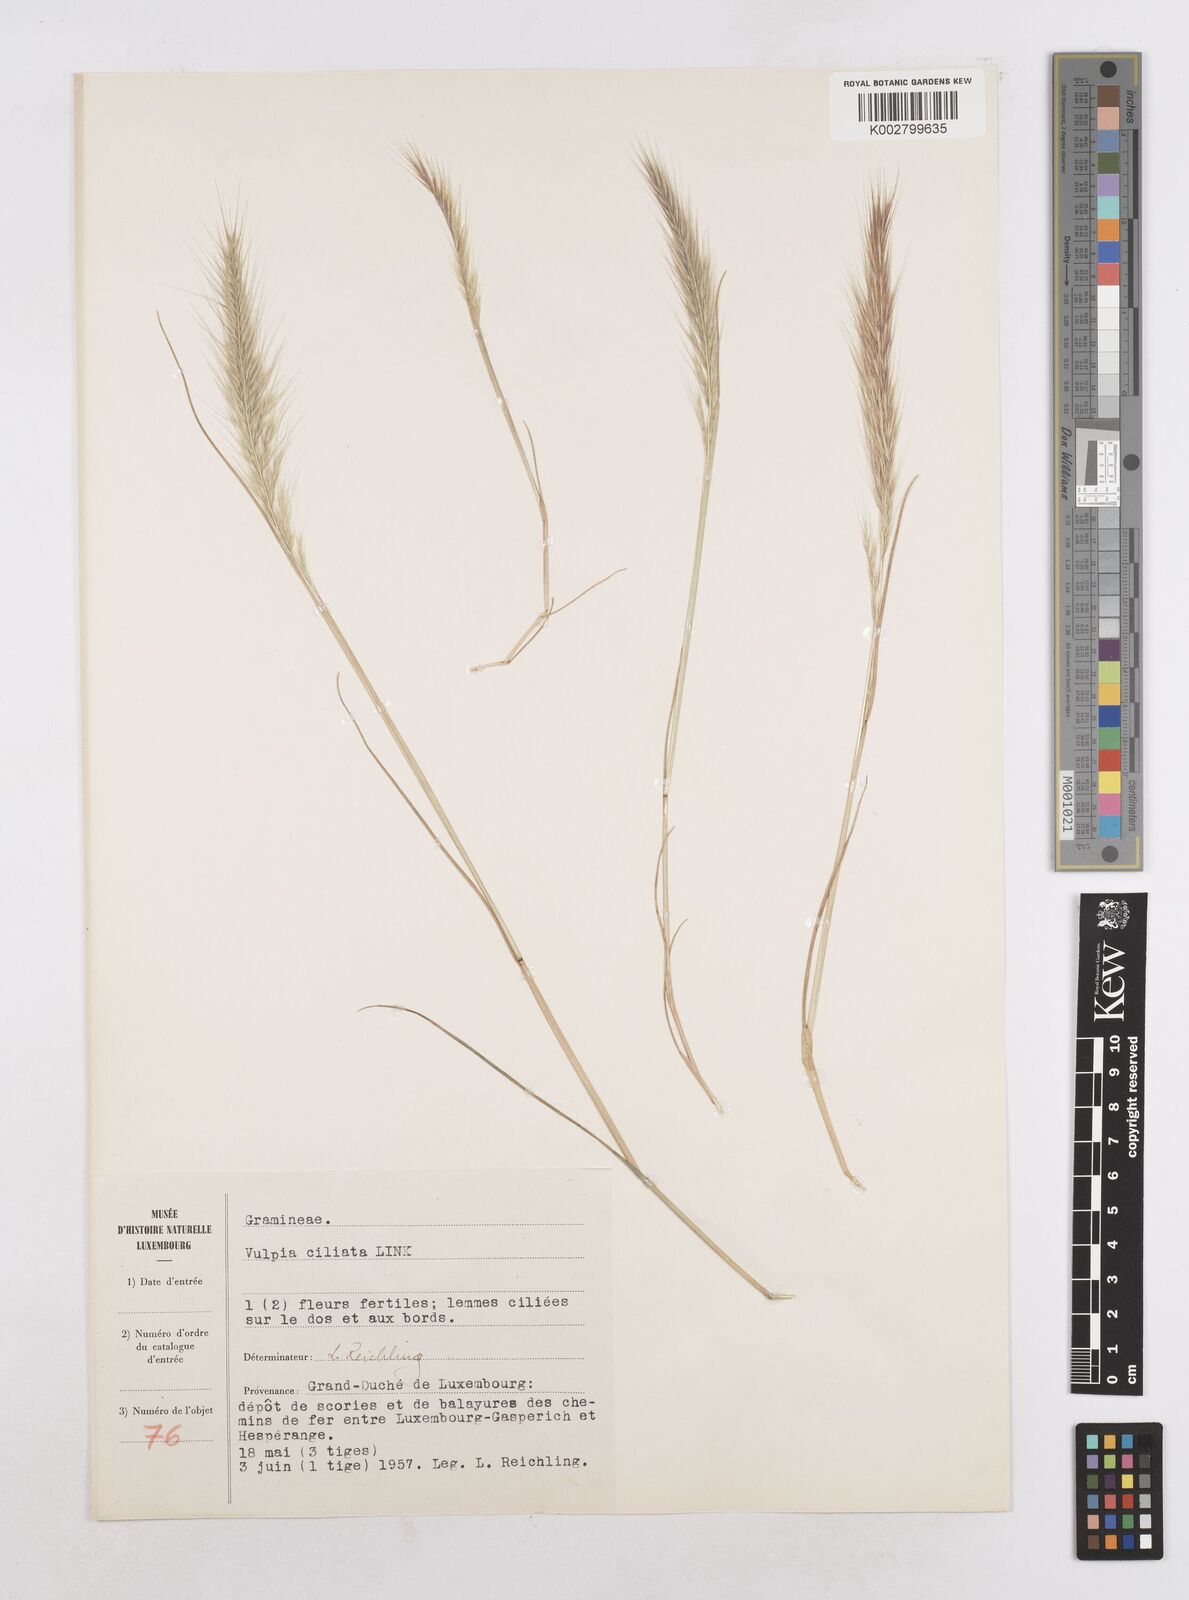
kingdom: Plantae
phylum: Tracheophyta
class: Liliopsida
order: Poales
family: Poaceae
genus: Festuca
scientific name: Festuca
